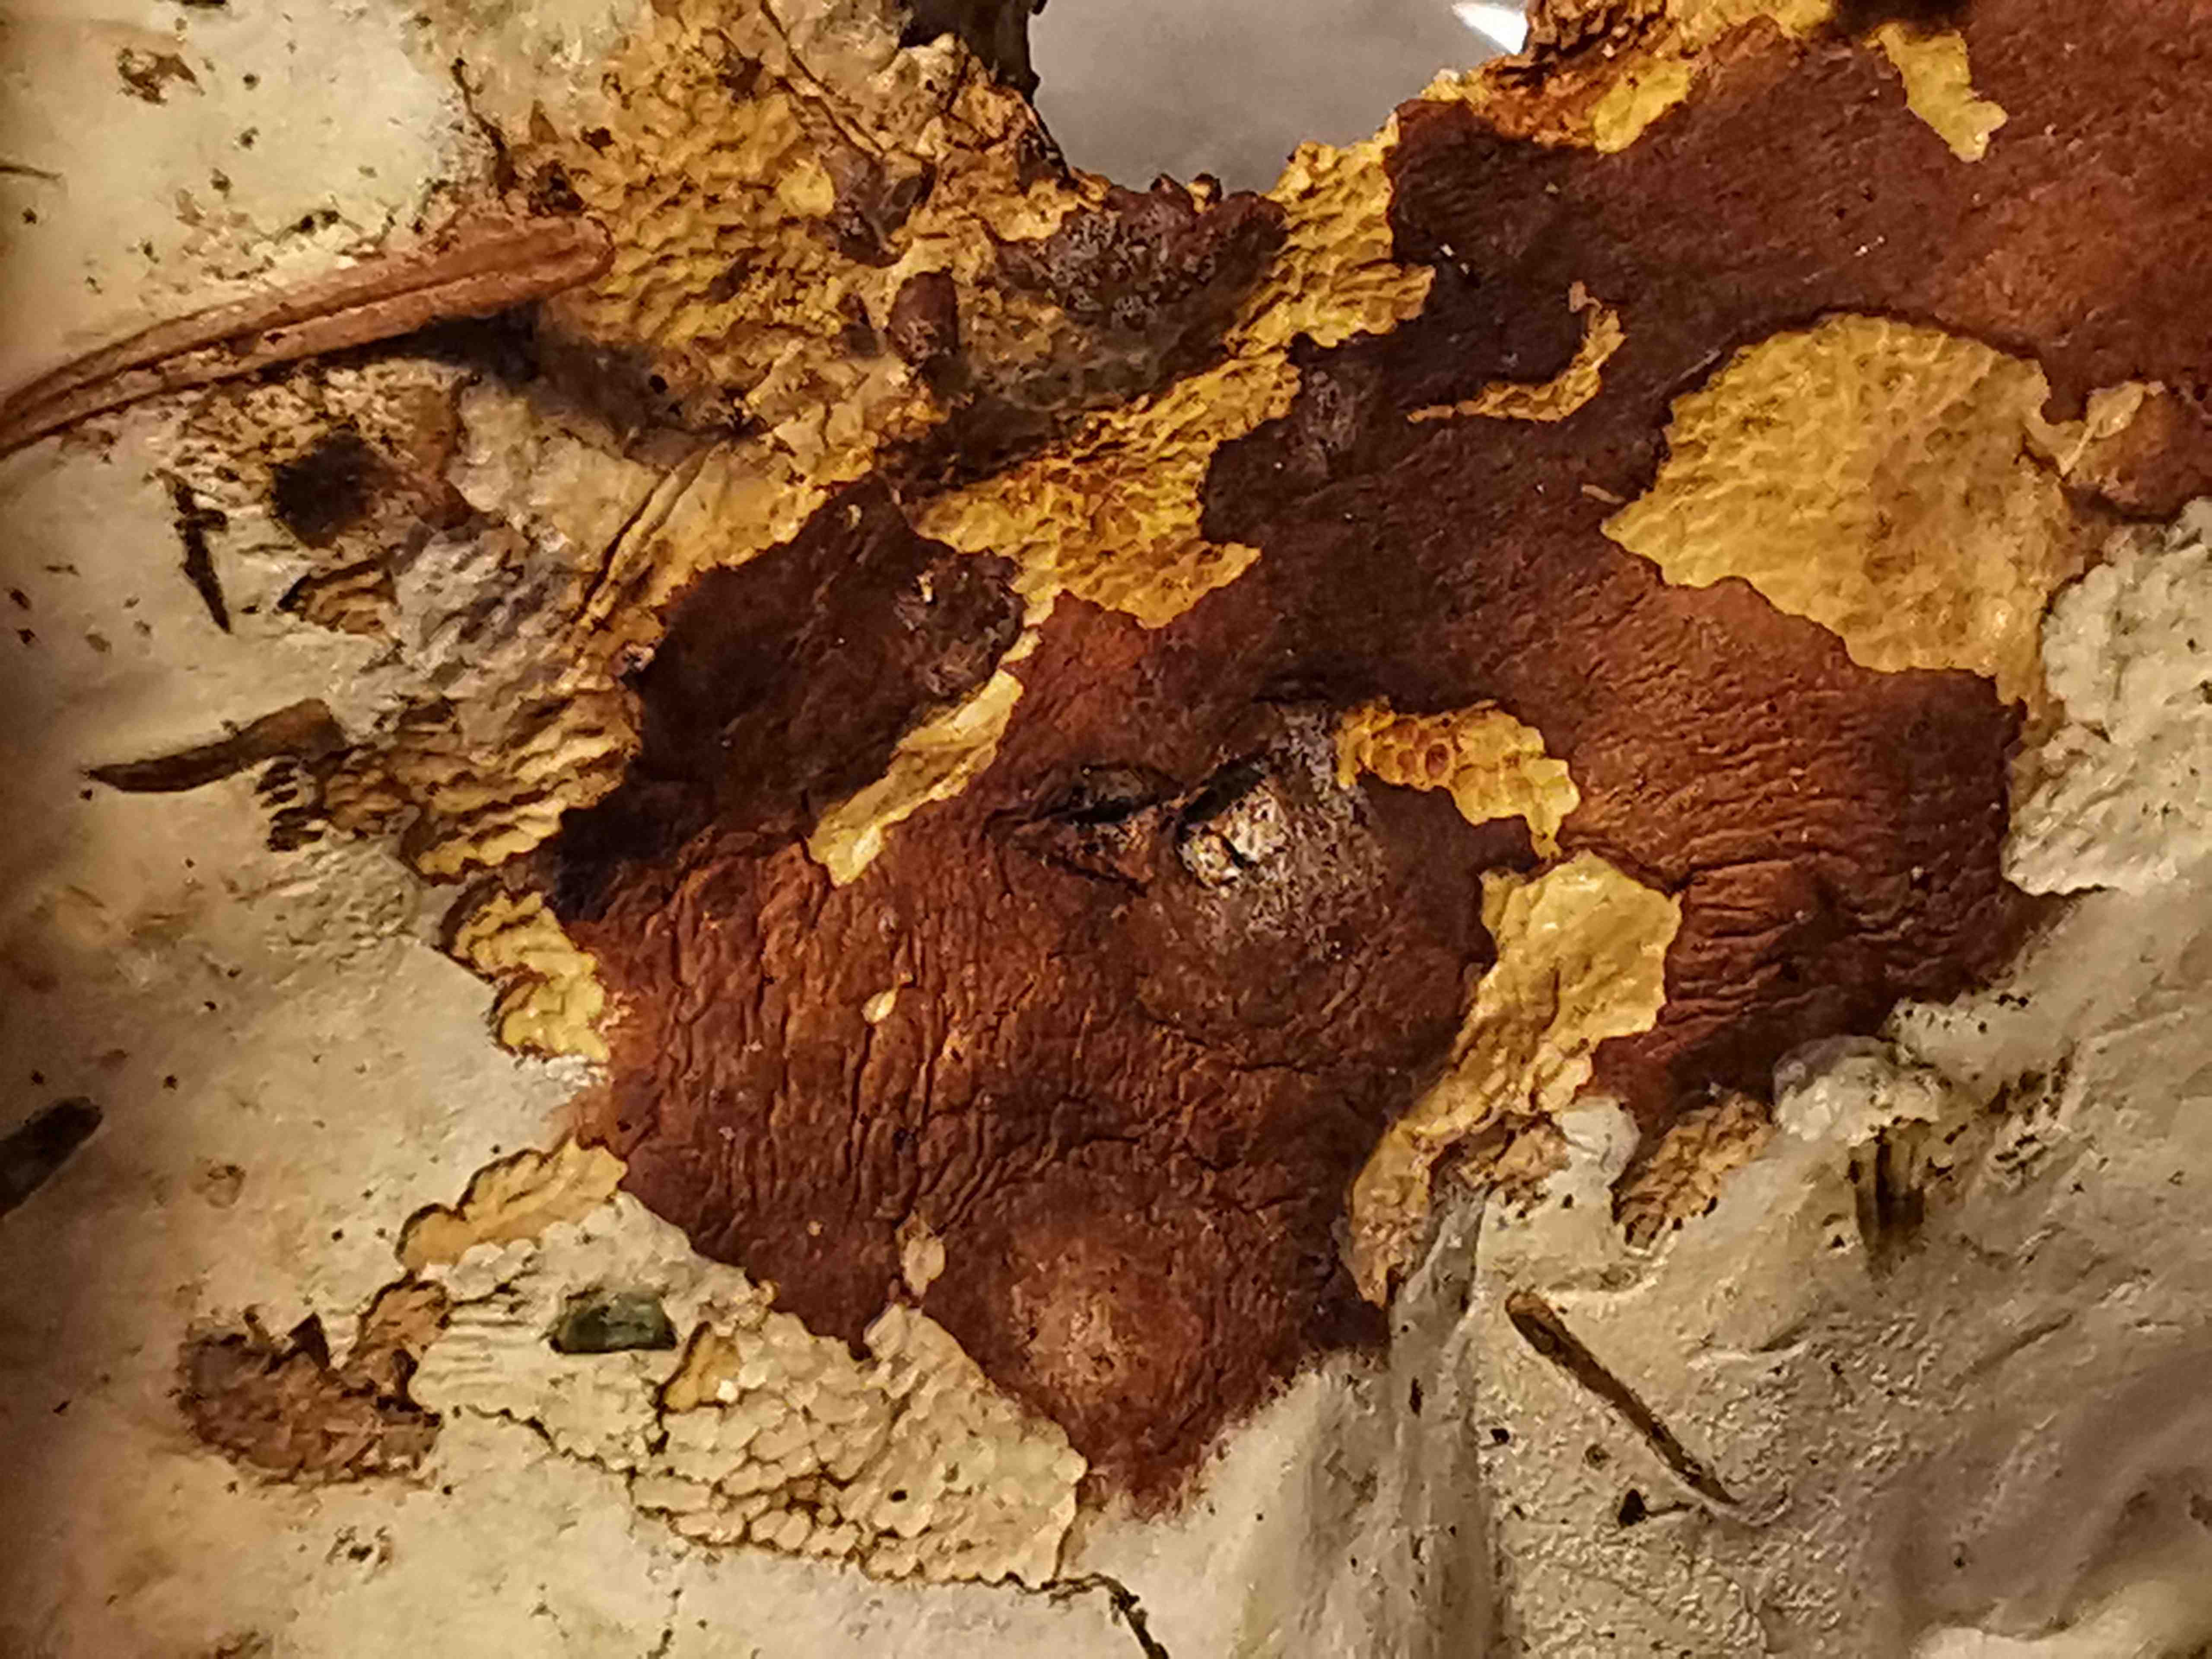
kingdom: Fungi
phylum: Ascomycota
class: Sordariomycetes
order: Hypocreales
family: Hypocreaceae
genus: Hypomyces
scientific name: Hypomyces chrysospermus
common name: gulskimmel-snylteskorpe
